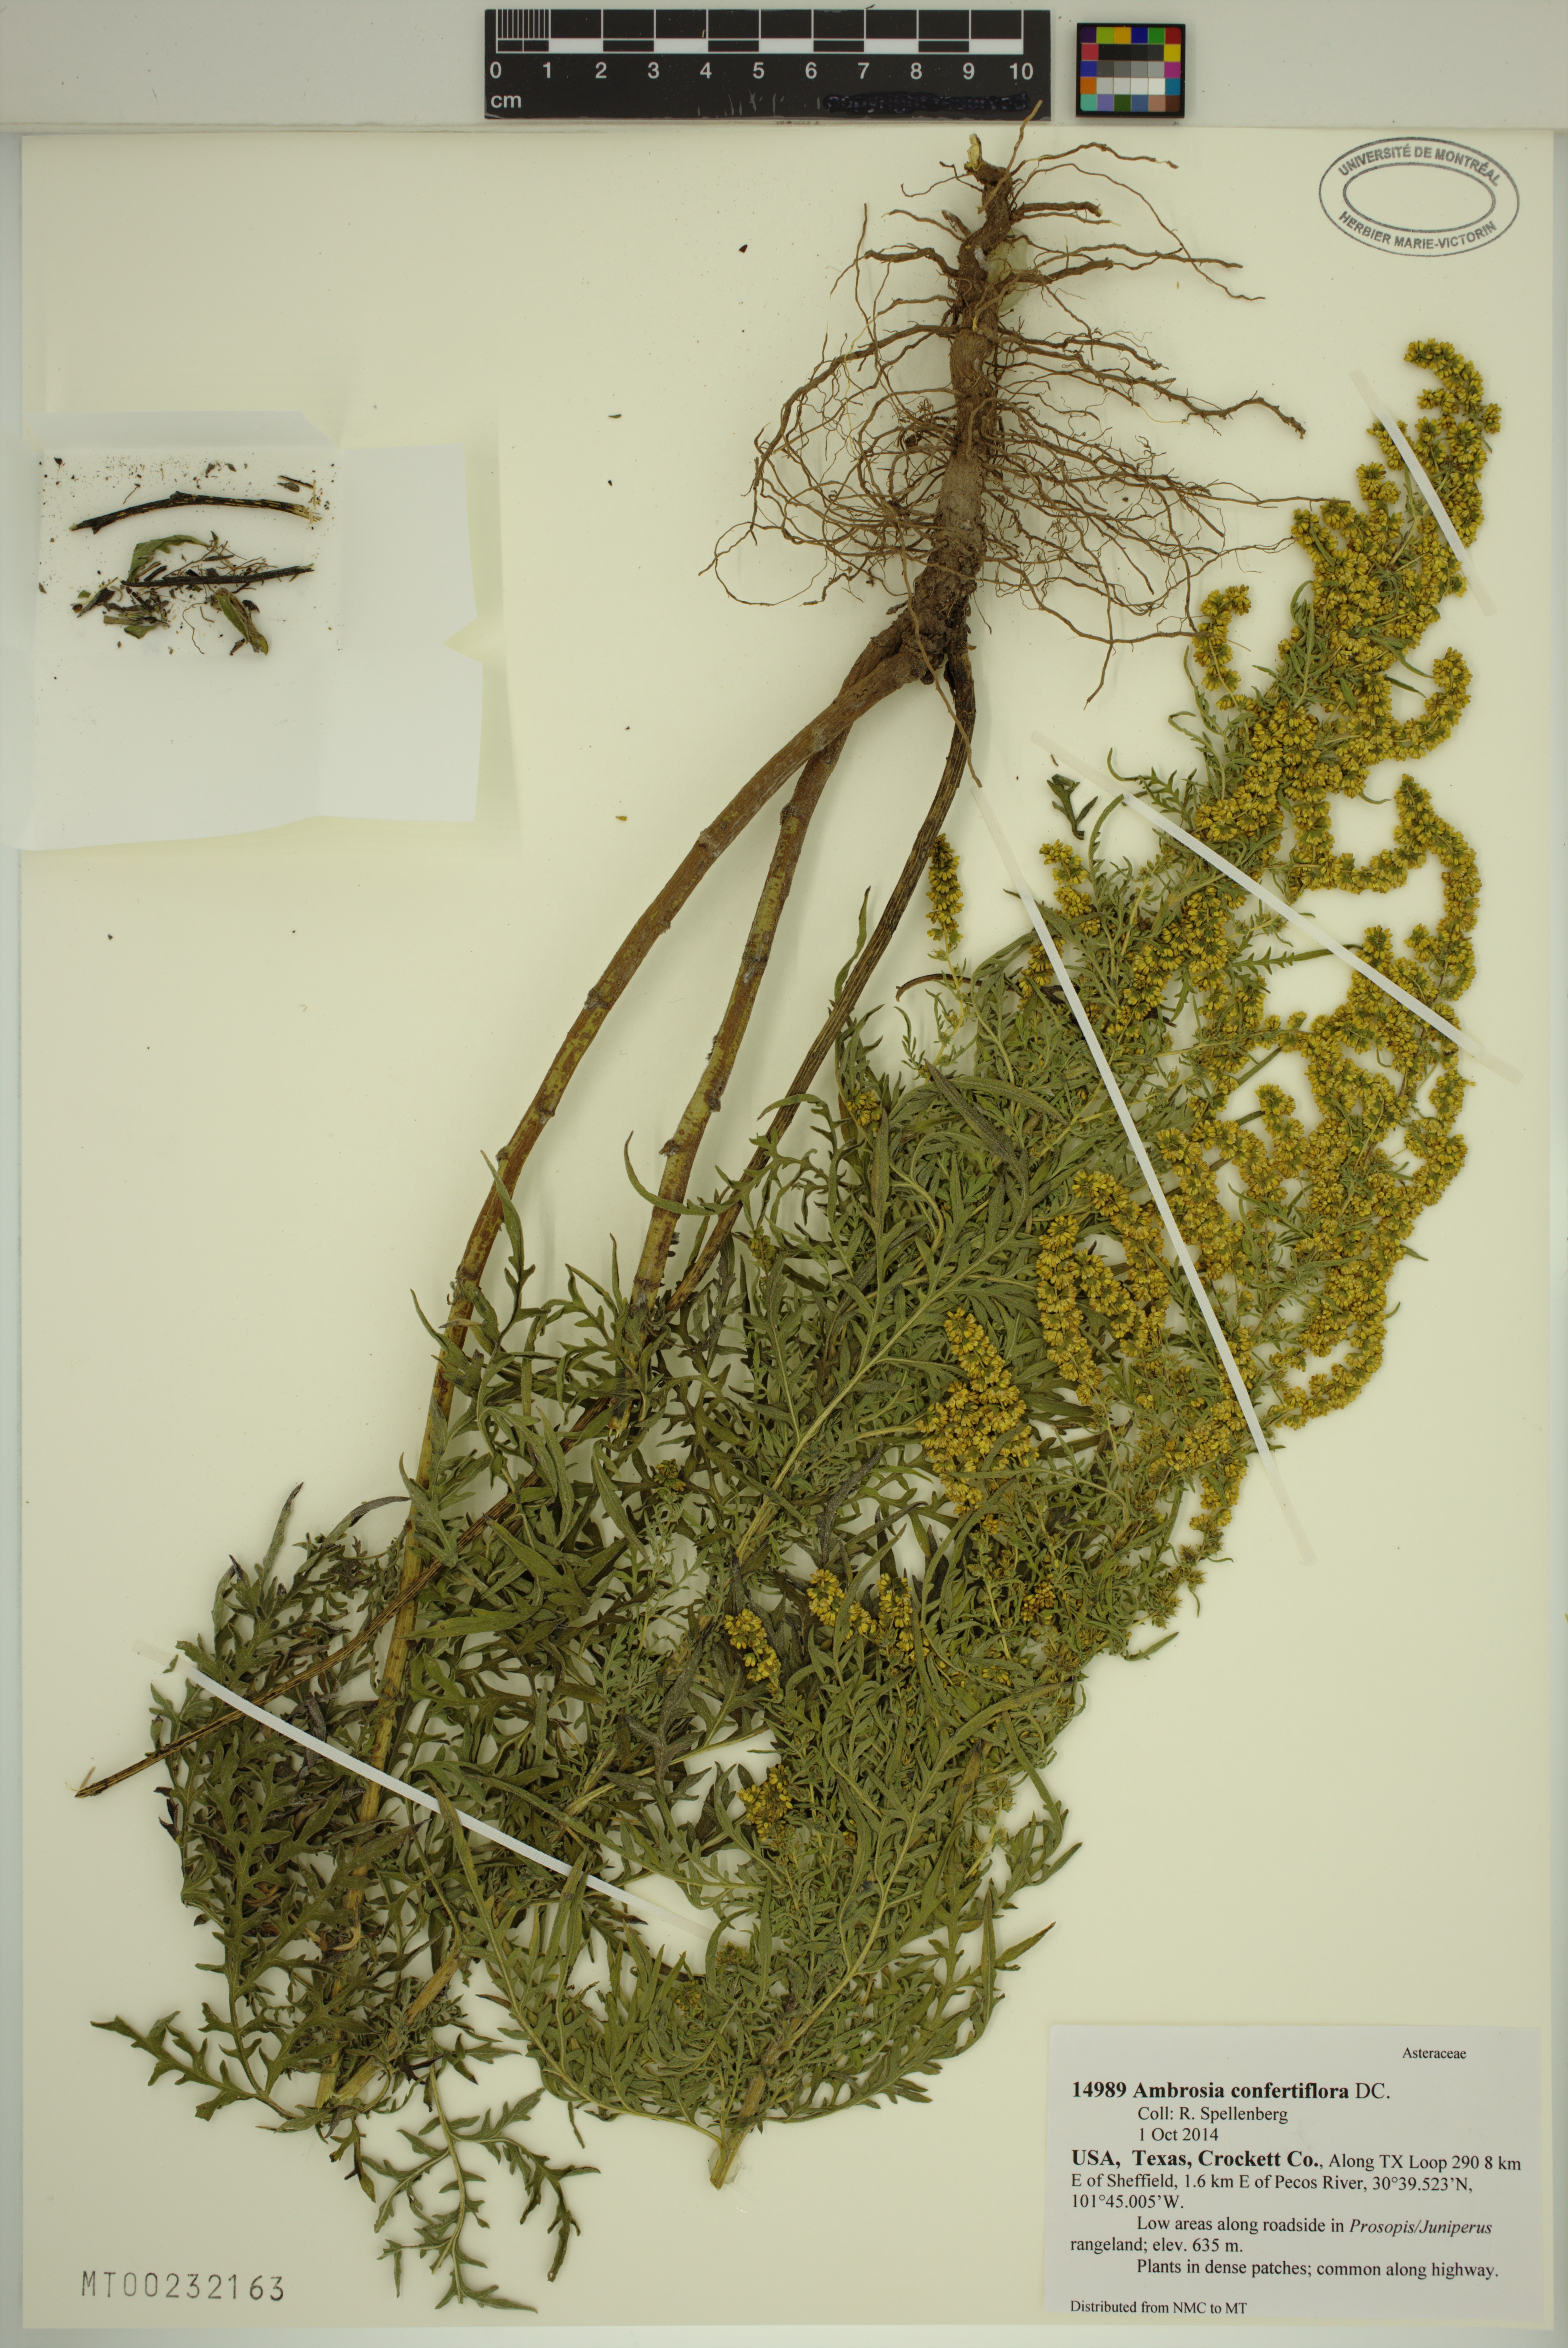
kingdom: Plantae
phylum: Tracheophyta
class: Magnoliopsida
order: Asterales
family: Asteraceae
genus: Ambrosia
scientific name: Ambrosia confertiflora
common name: Bur ragweed
